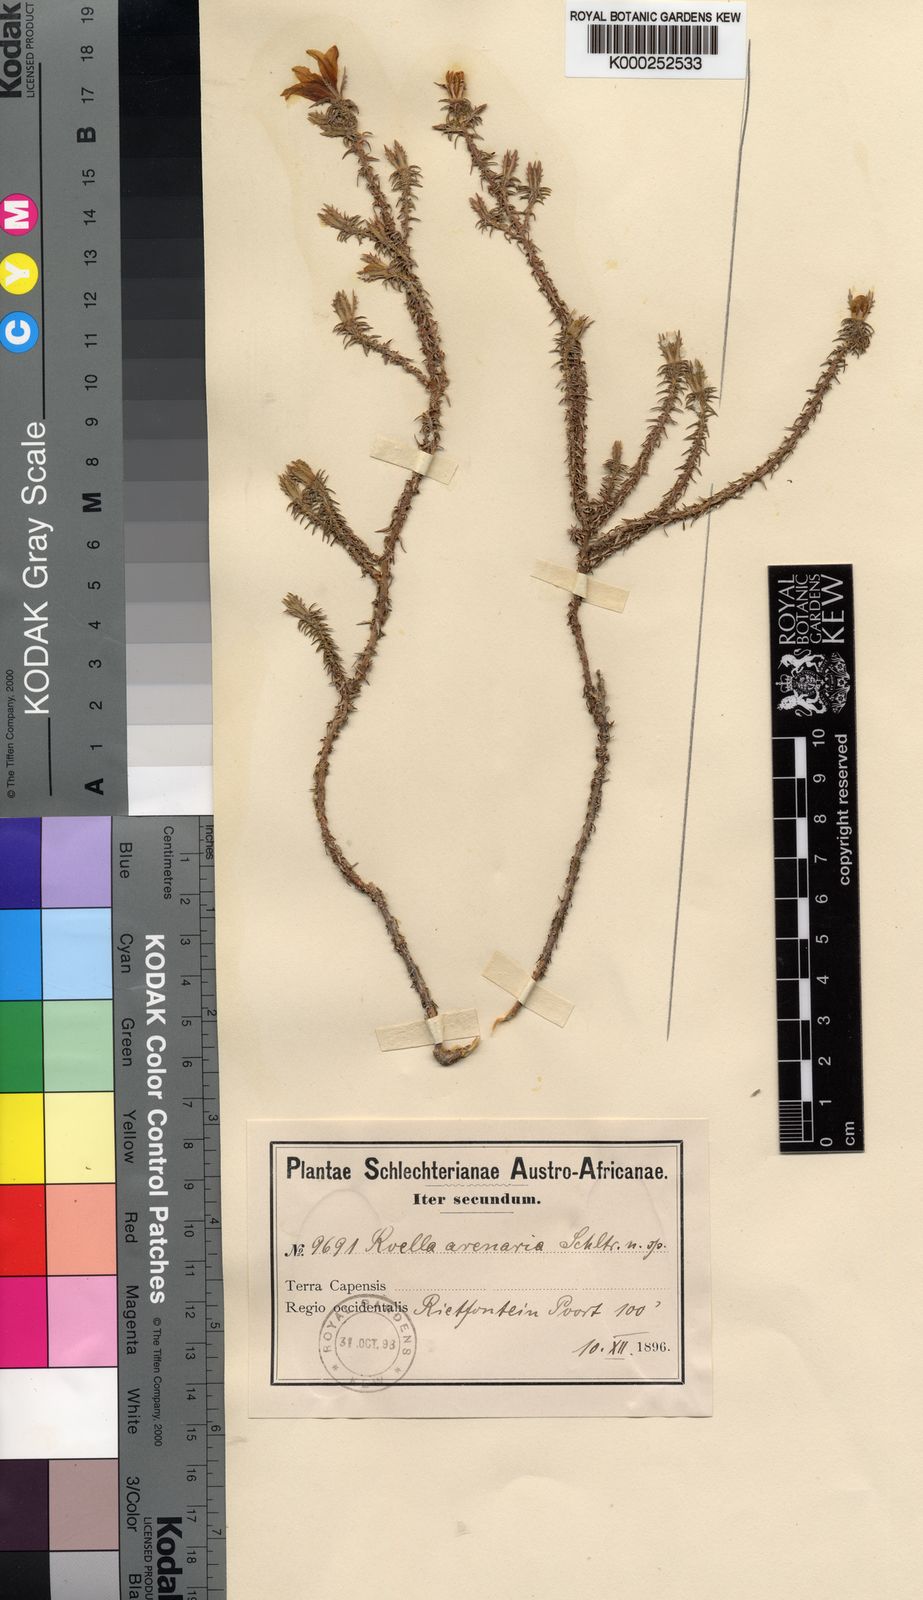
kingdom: Plantae
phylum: Tracheophyta
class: Magnoliopsida
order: Asterales
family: Campanulaceae
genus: Roella
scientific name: Roella arenaria
